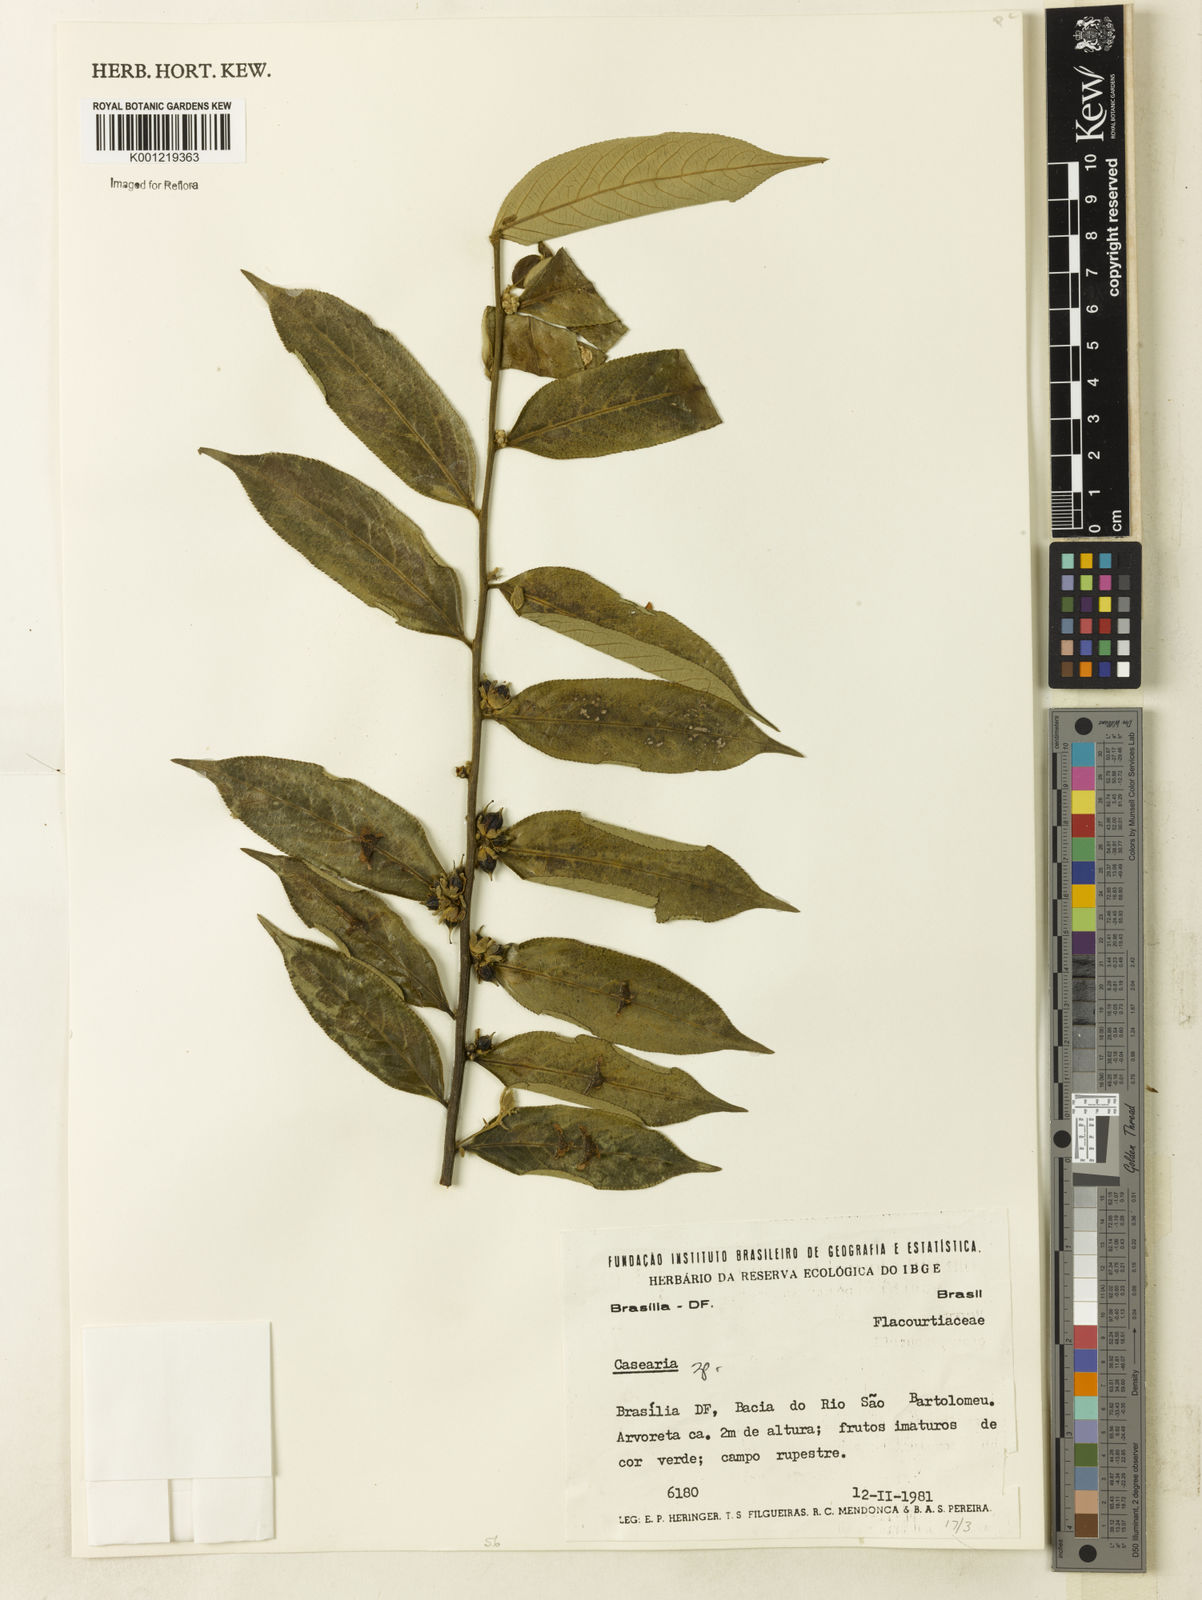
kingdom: Plantae
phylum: Tracheophyta
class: Magnoliopsida
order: Malpighiales
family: Salicaceae
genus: Casearia
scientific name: Casearia
